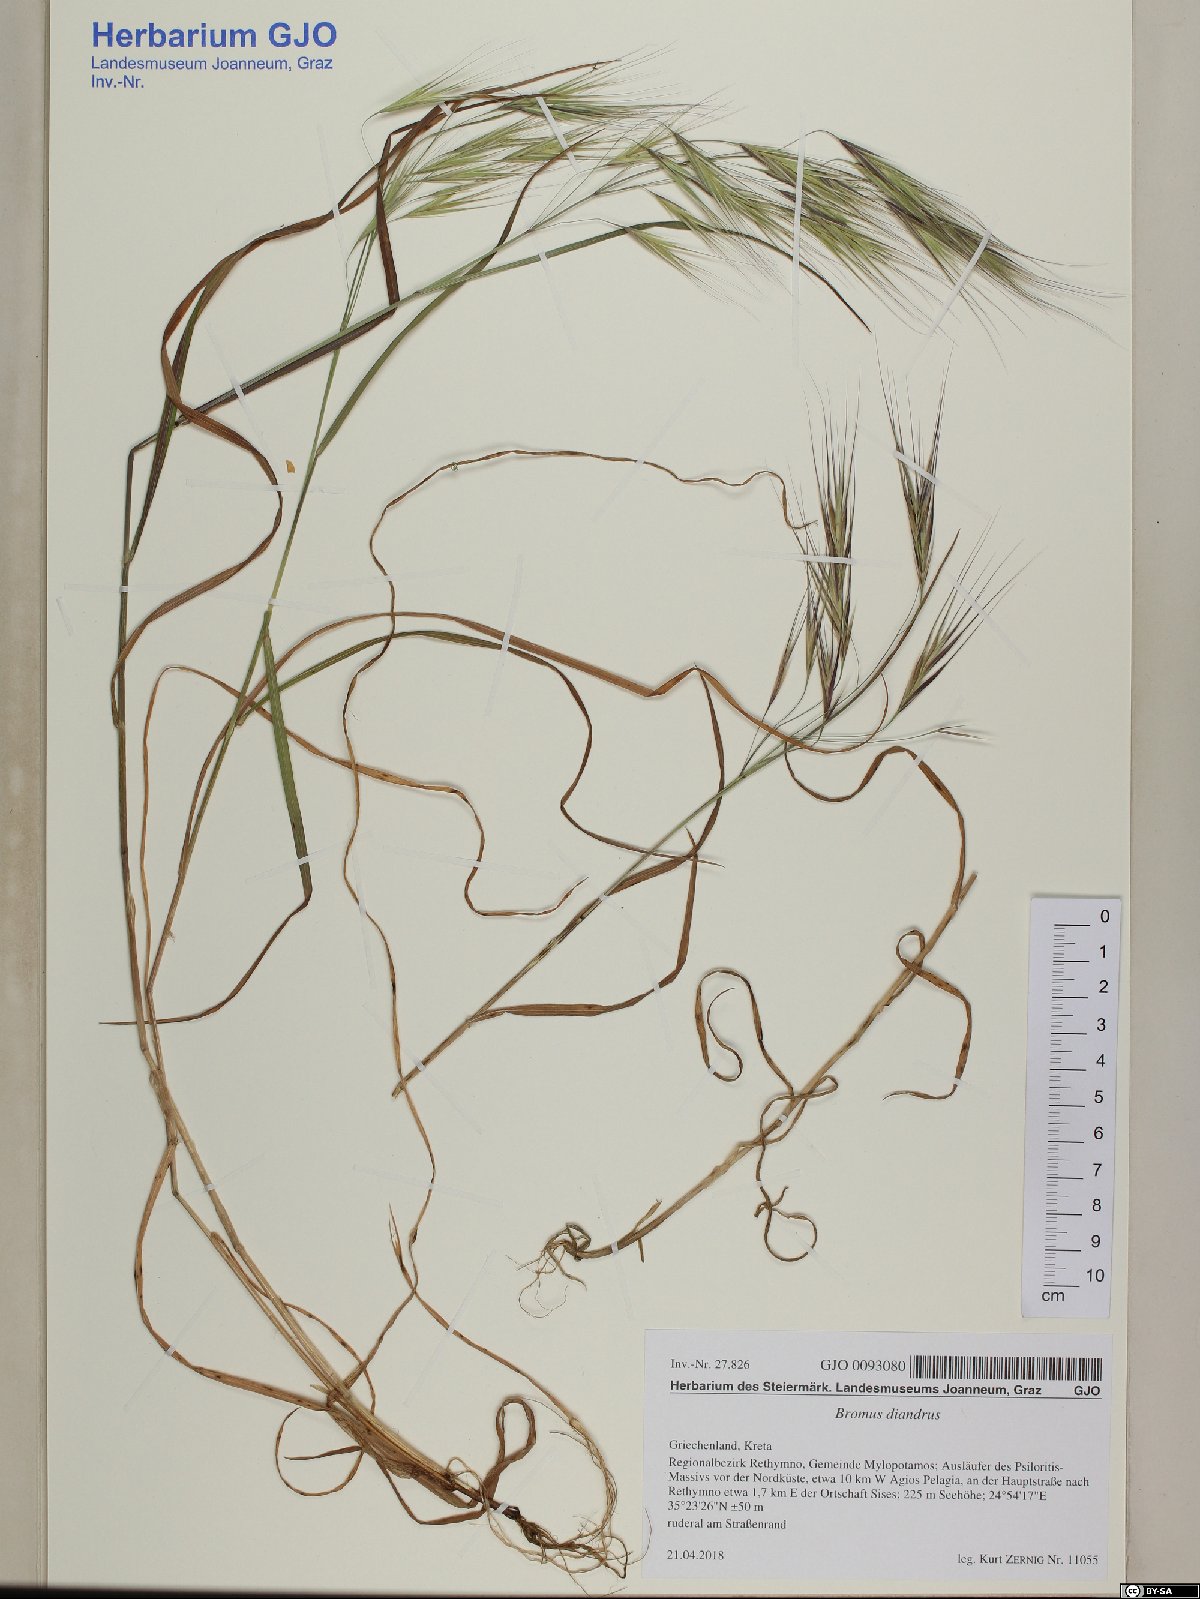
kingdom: Plantae
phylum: Tracheophyta
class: Liliopsida
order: Poales
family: Poaceae
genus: Bromus
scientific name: Bromus diandrus
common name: Ripgut brome
